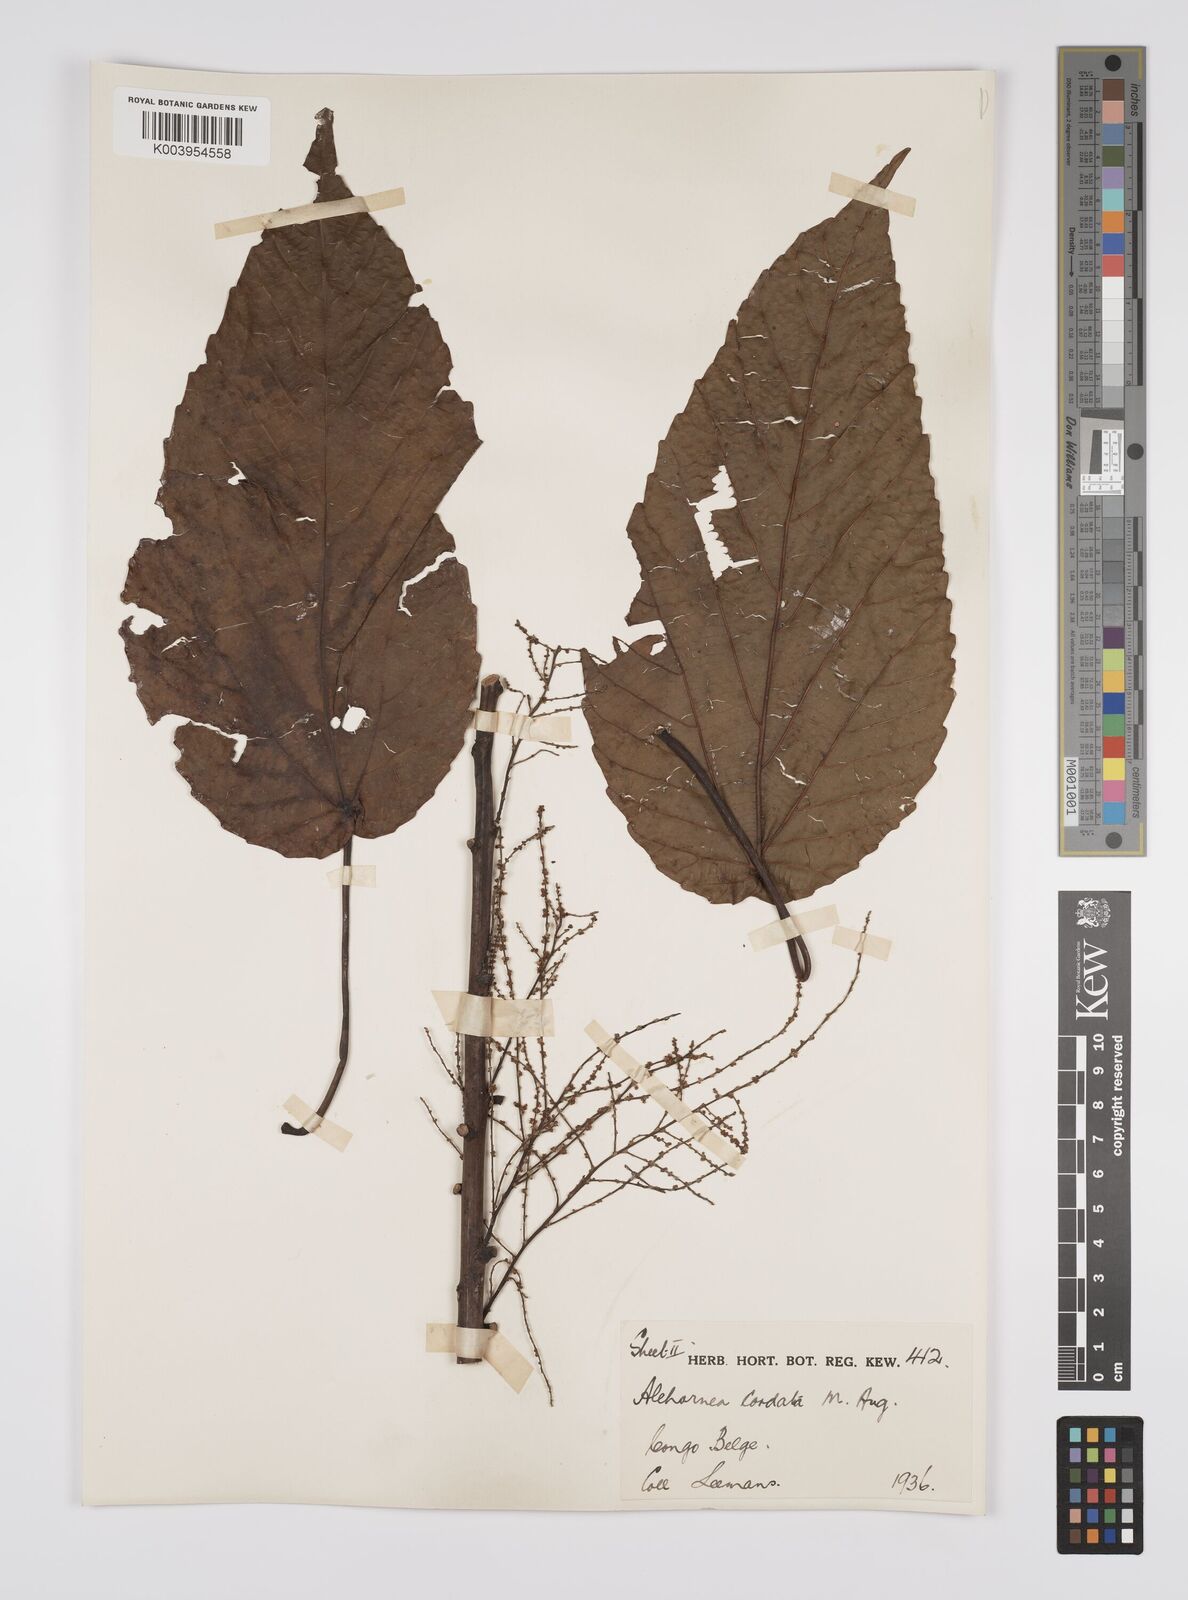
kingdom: Plantae
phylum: Tracheophyta
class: Magnoliopsida
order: Malpighiales
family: Euphorbiaceae
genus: Alchornea
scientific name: Alchornea cordifolia
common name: Christmasbush
